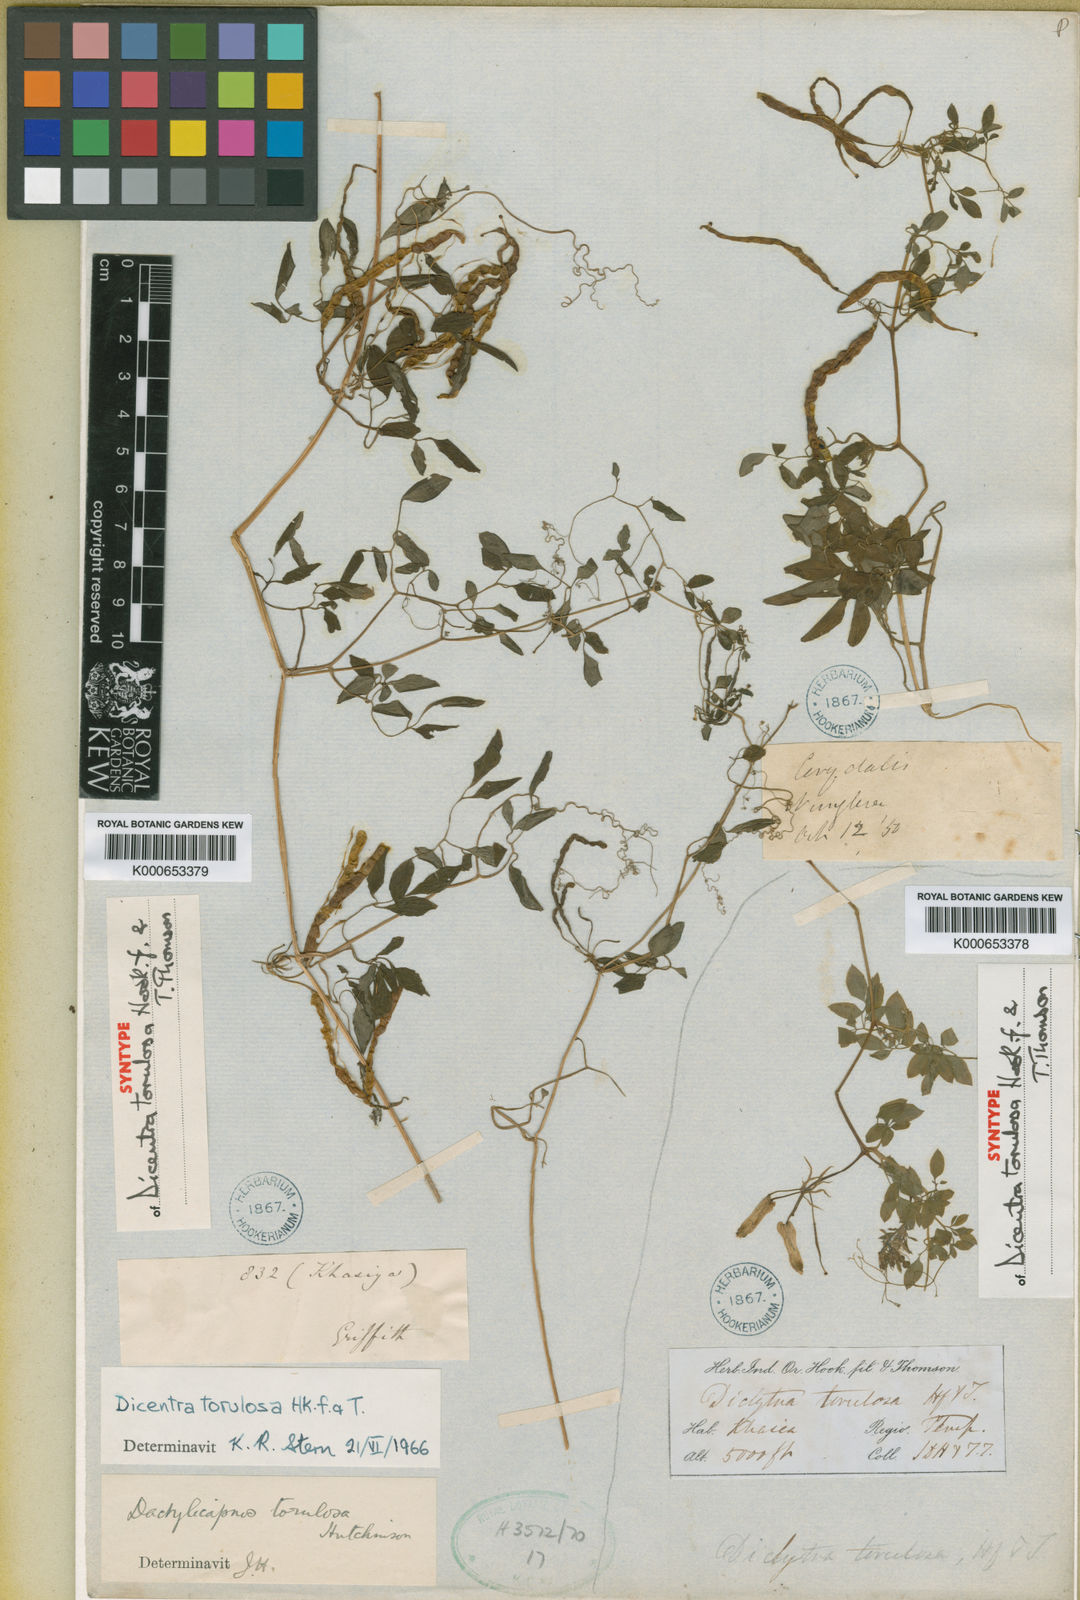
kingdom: Plantae
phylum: Tracheophyta
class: Magnoliopsida
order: Ranunculales
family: Papaveraceae
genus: Dactylicapnos
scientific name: Dactylicapnos torulosa
